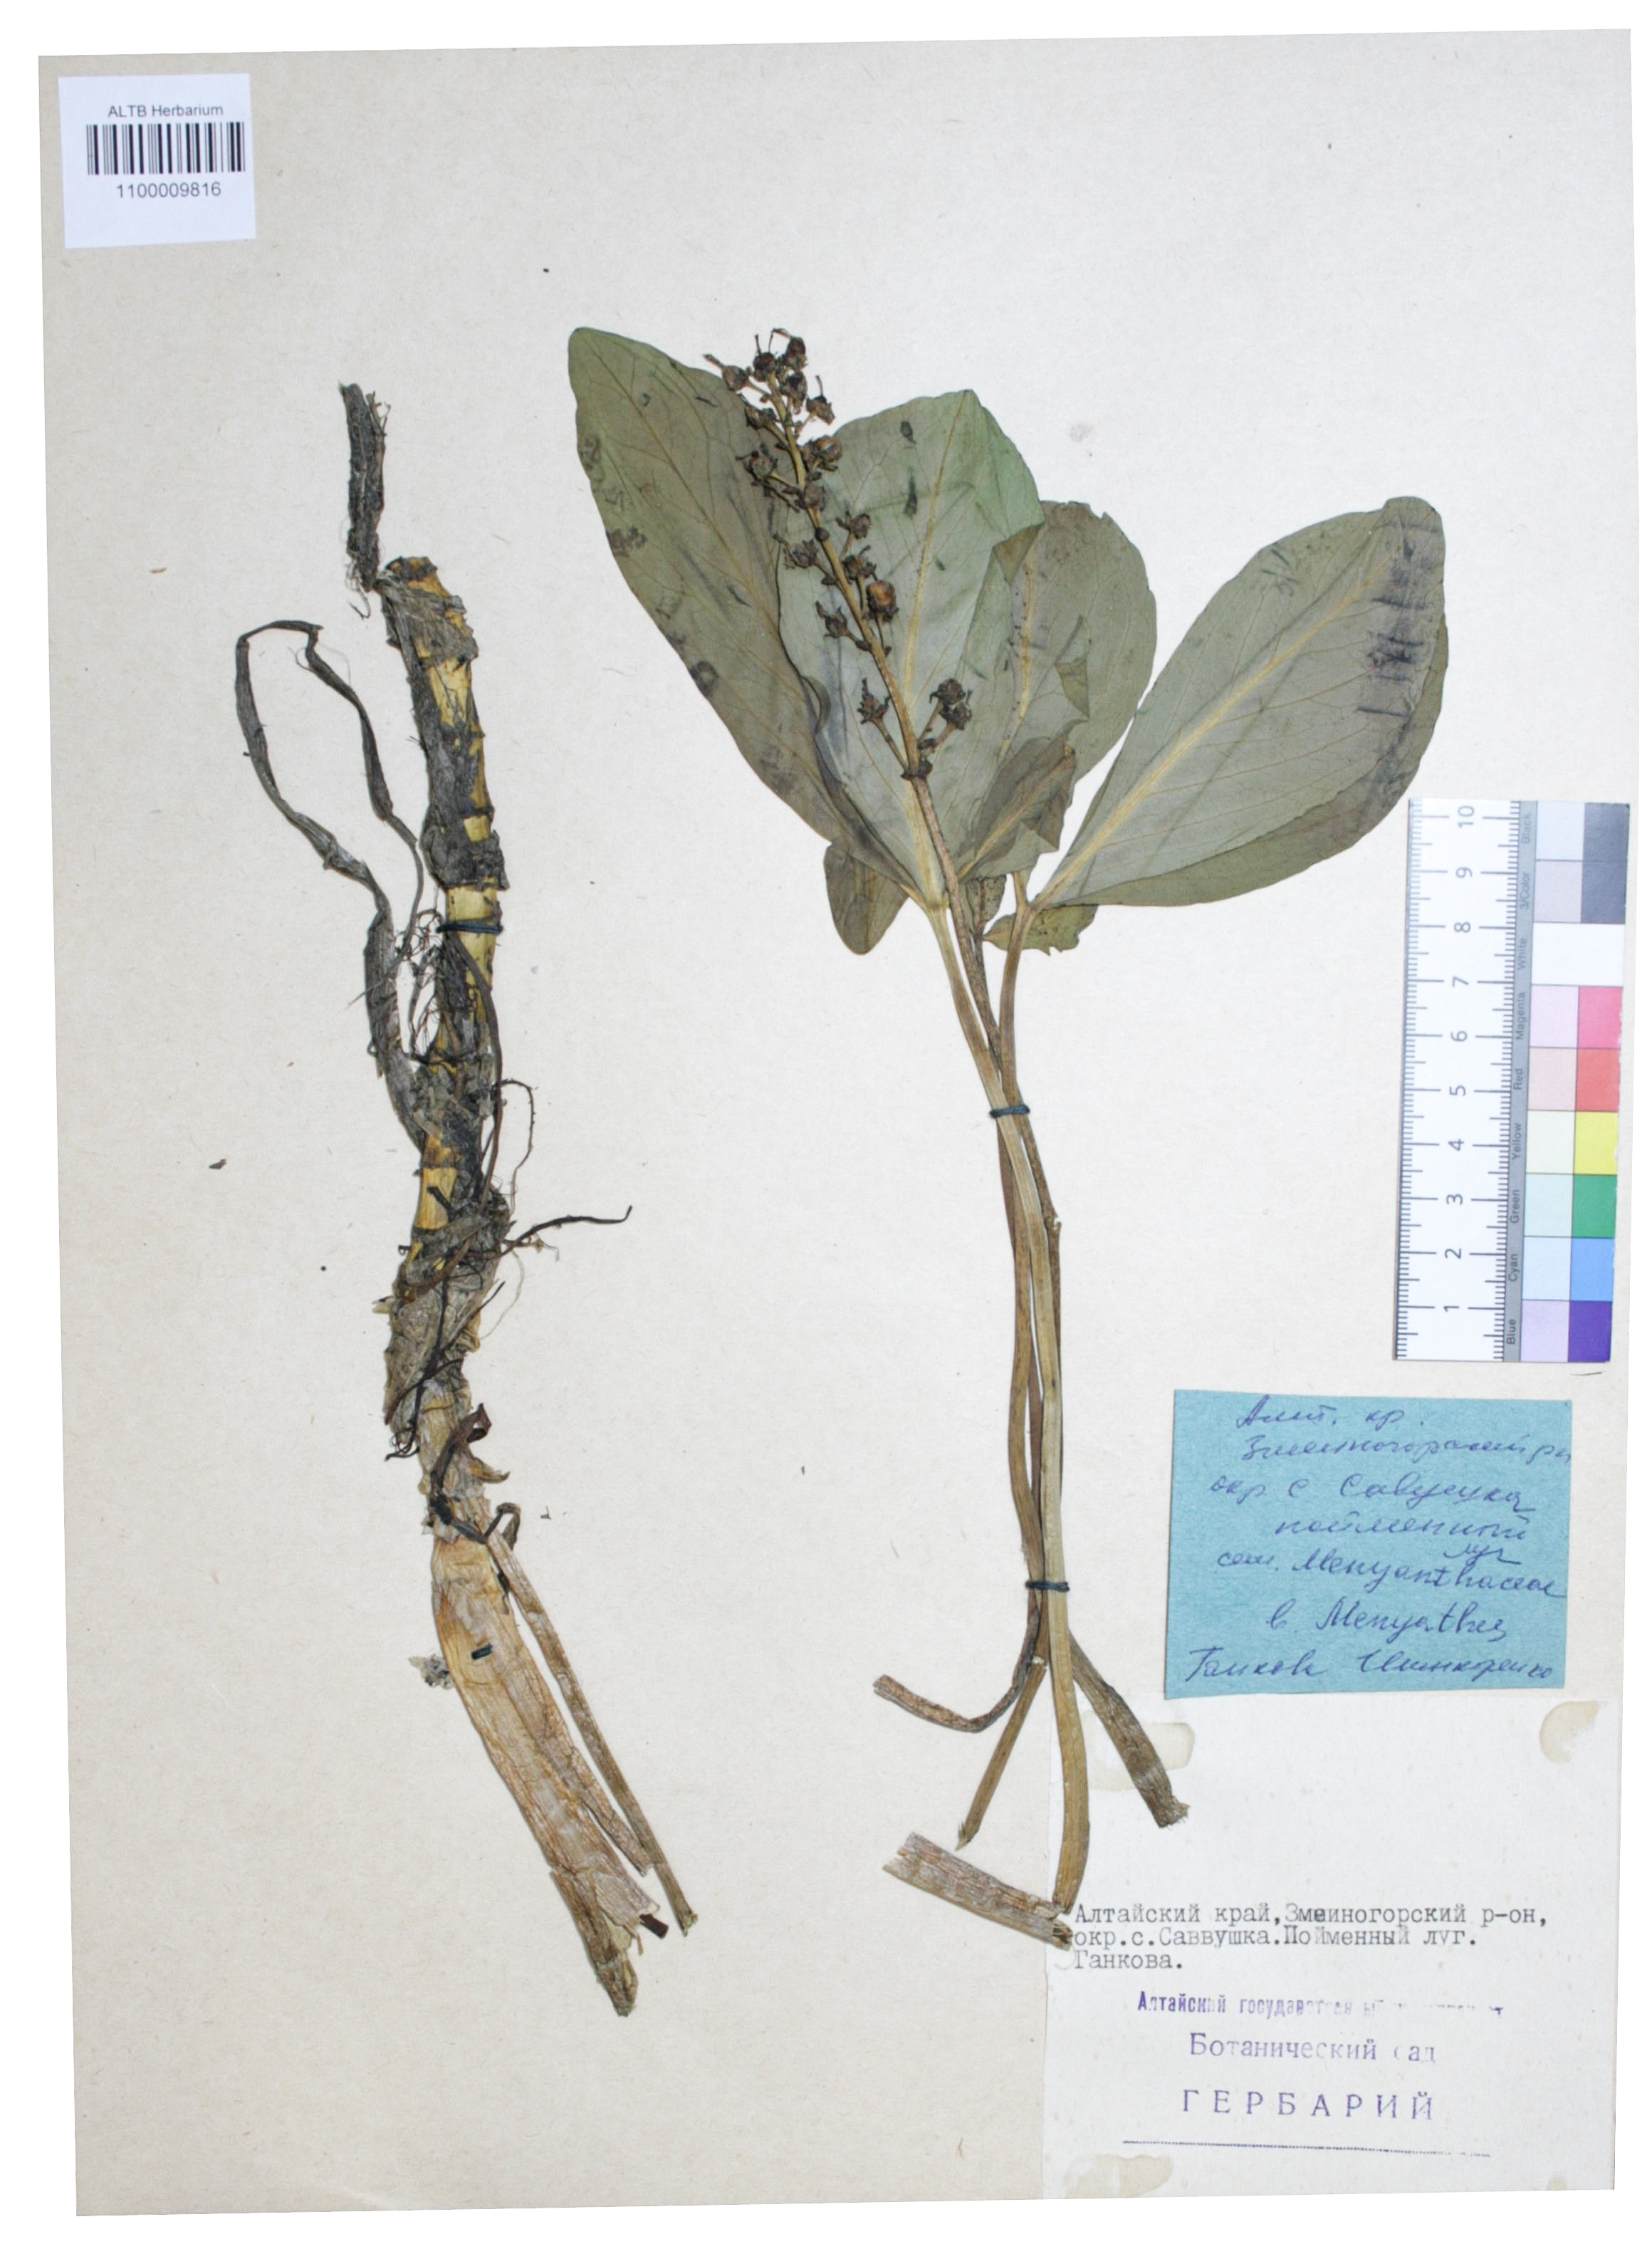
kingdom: Plantae
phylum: Tracheophyta
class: Magnoliopsida
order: Asterales
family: Menyanthaceae
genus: Menyanthes
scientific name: Menyanthes trifoliata
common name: Bogbean
